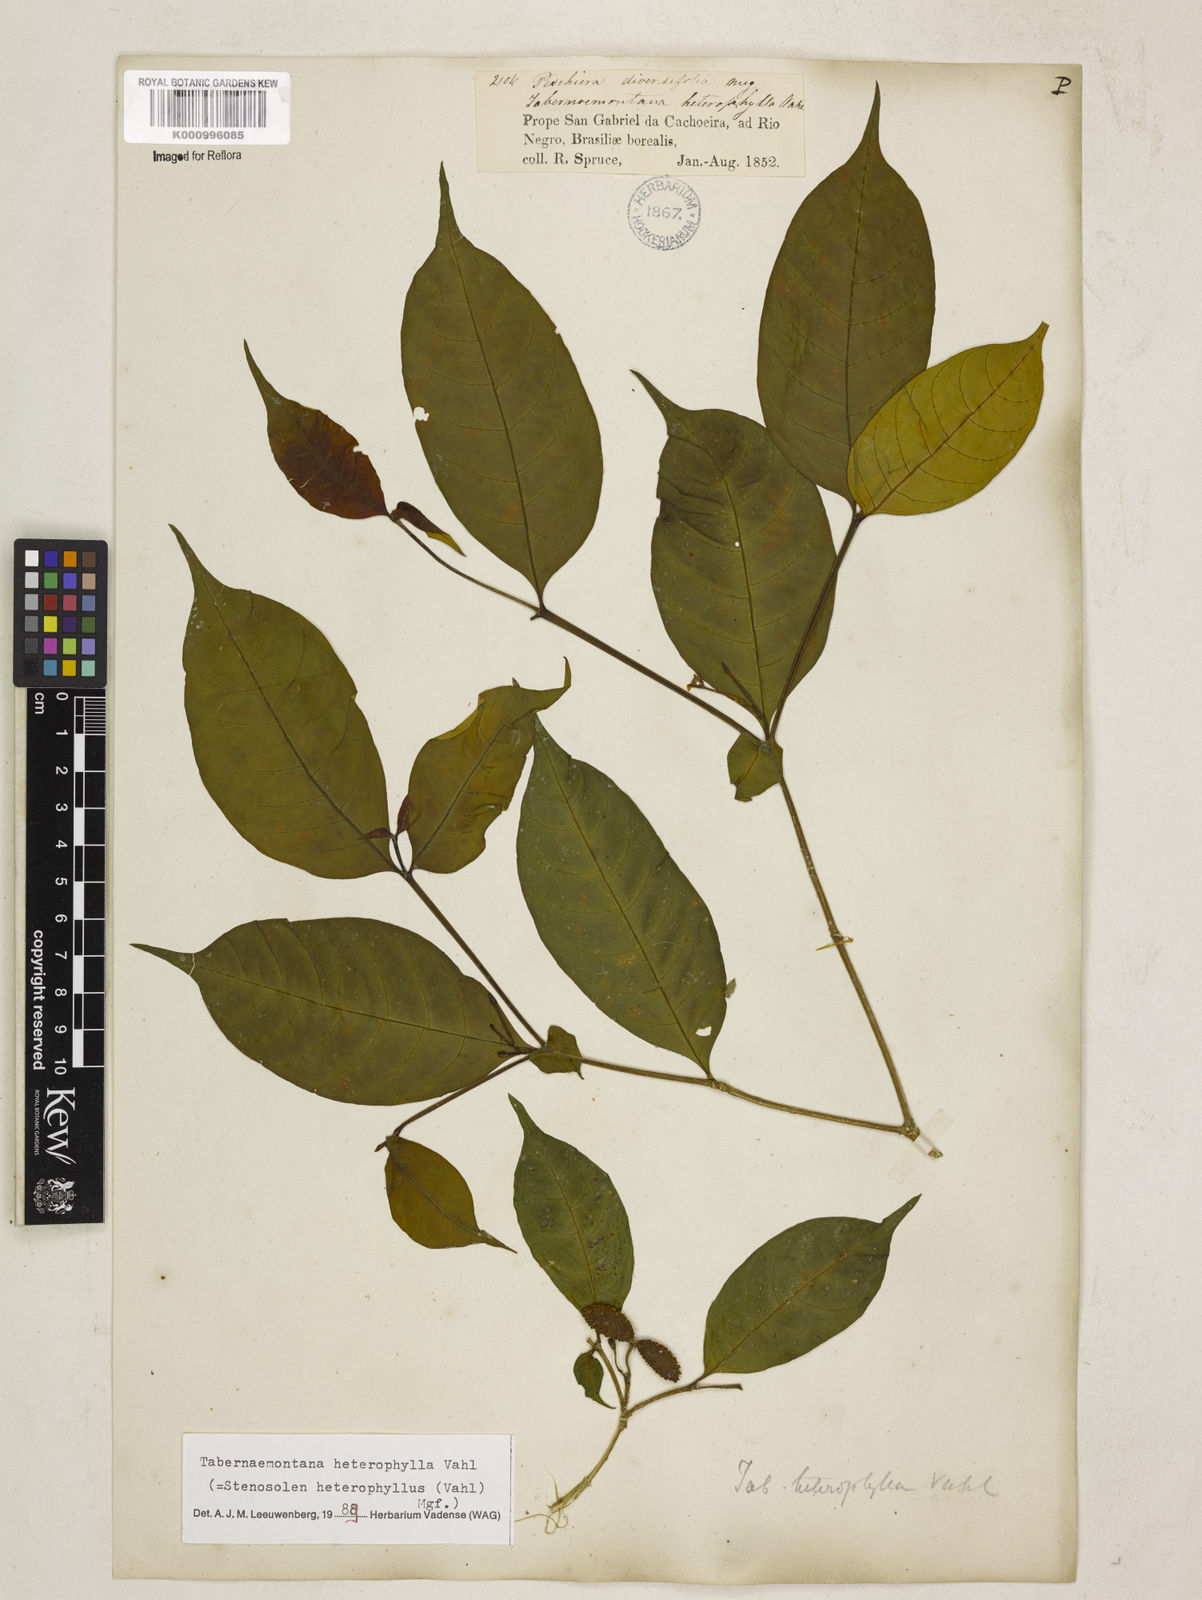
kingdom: Plantae
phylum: Tracheophyta
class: Magnoliopsida
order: Gentianales
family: Apocynaceae
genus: Tabernaemontana
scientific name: Tabernaemontana heterophylla
